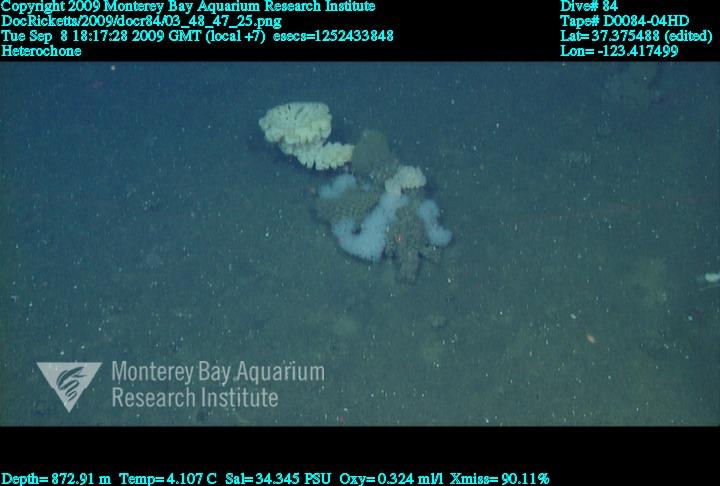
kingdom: Animalia
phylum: Porifera
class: Hexactinellida
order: Sceptrulophora
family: Aphrocallistidae
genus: Heterochone
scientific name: Heterochone
